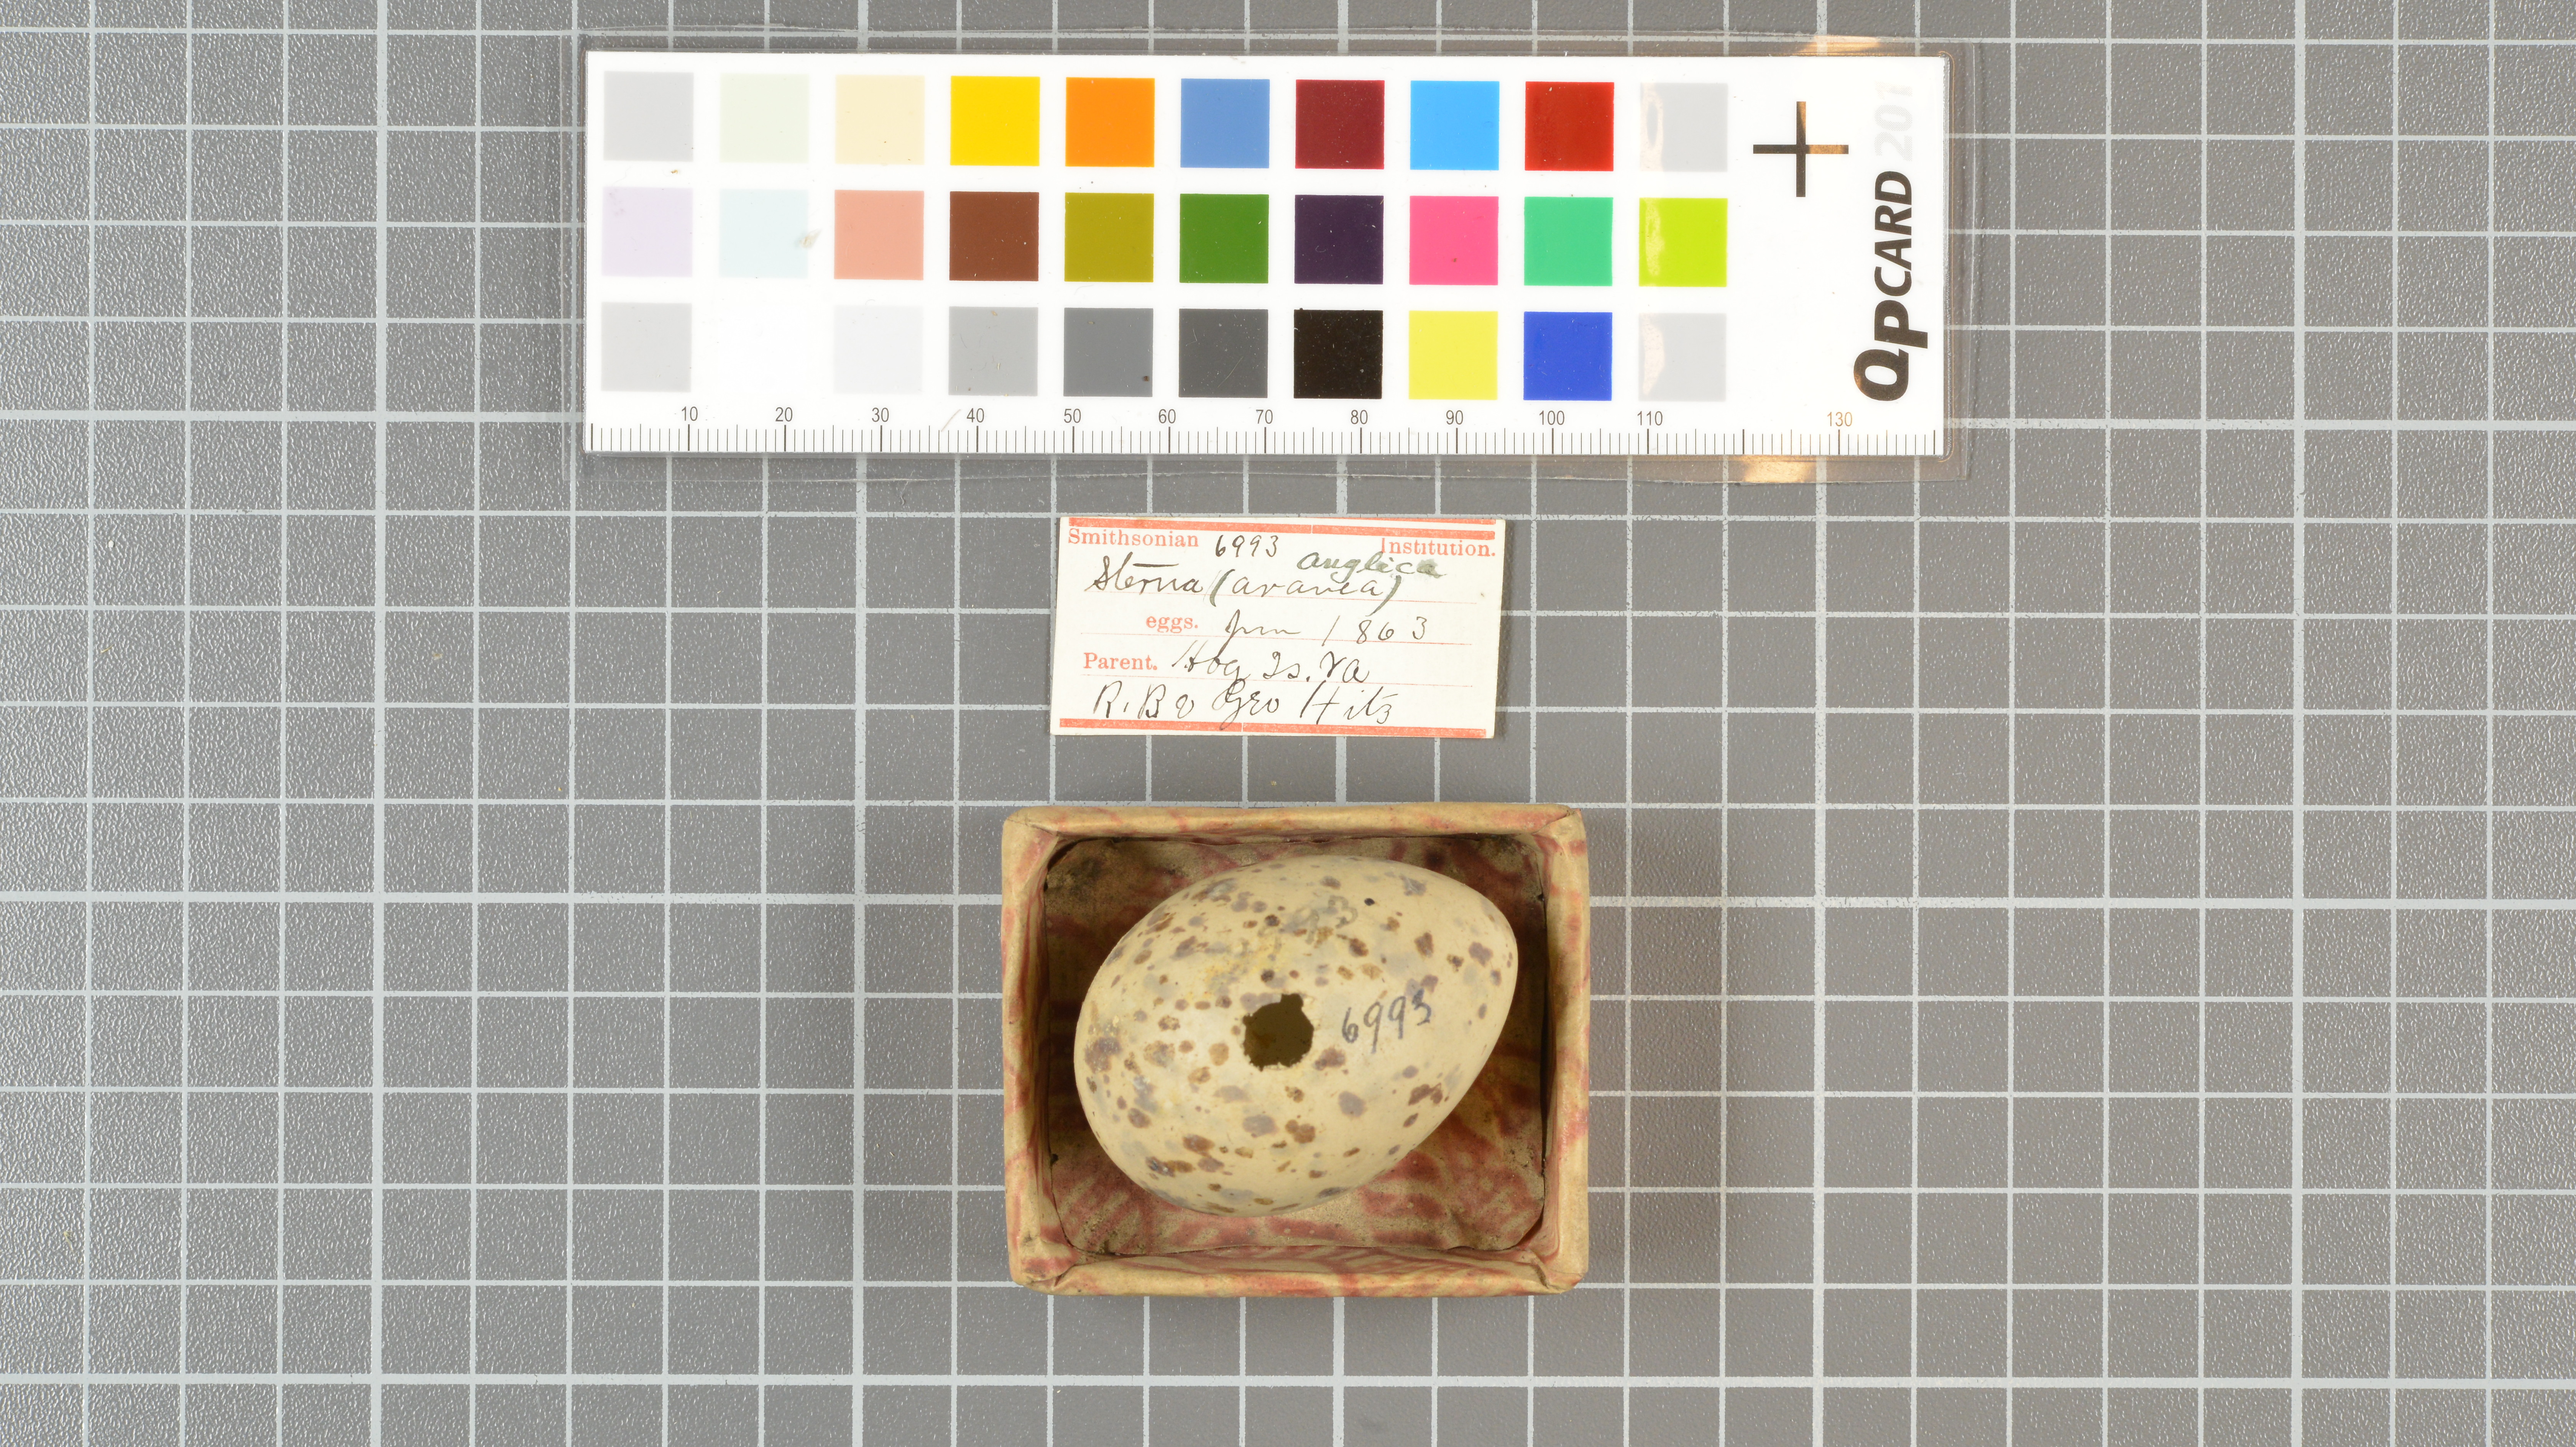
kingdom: Animalia
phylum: Chordata
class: Aves
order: Charadriiformes
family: Laridae
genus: Gelochelidon
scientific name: Gelochelidon nilotica
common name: Gull-billed tern
